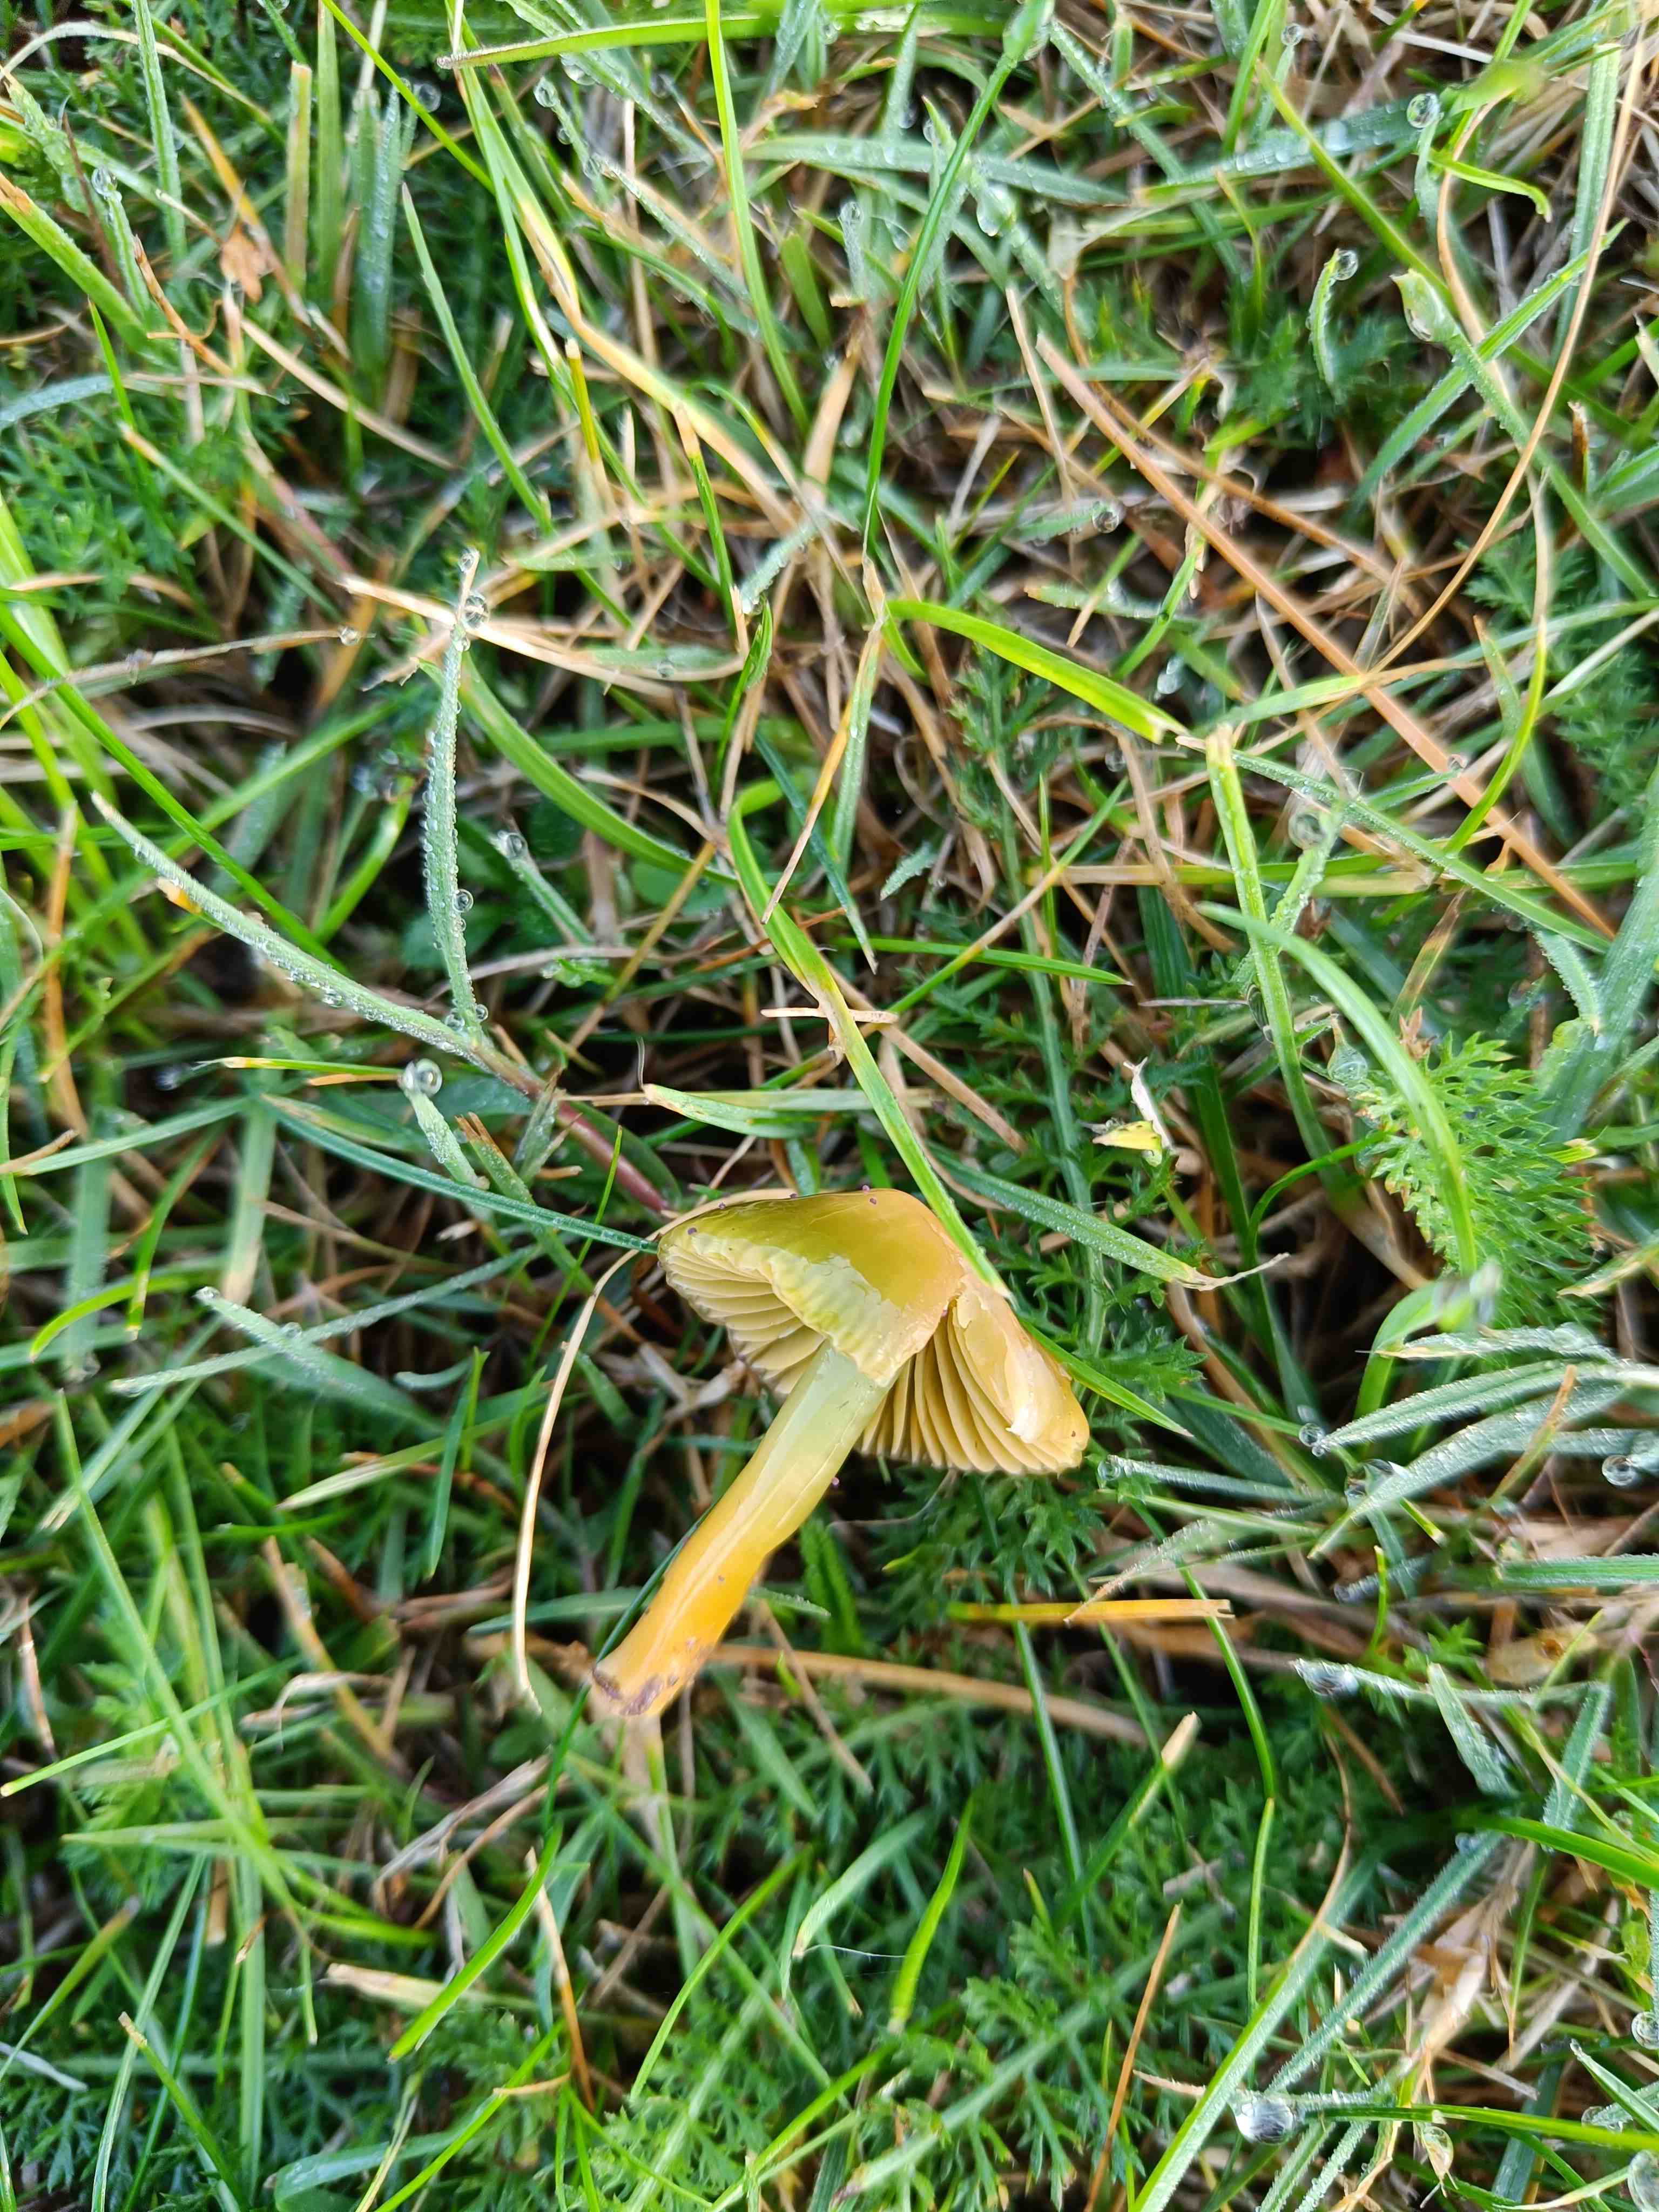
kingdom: Fungi
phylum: Basidiomycota
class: Agaricomycetes
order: Agaricales
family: Hygrophoraceae
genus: Gliophorus
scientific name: Gliophorus psittacinus
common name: papegøje-vokshat
